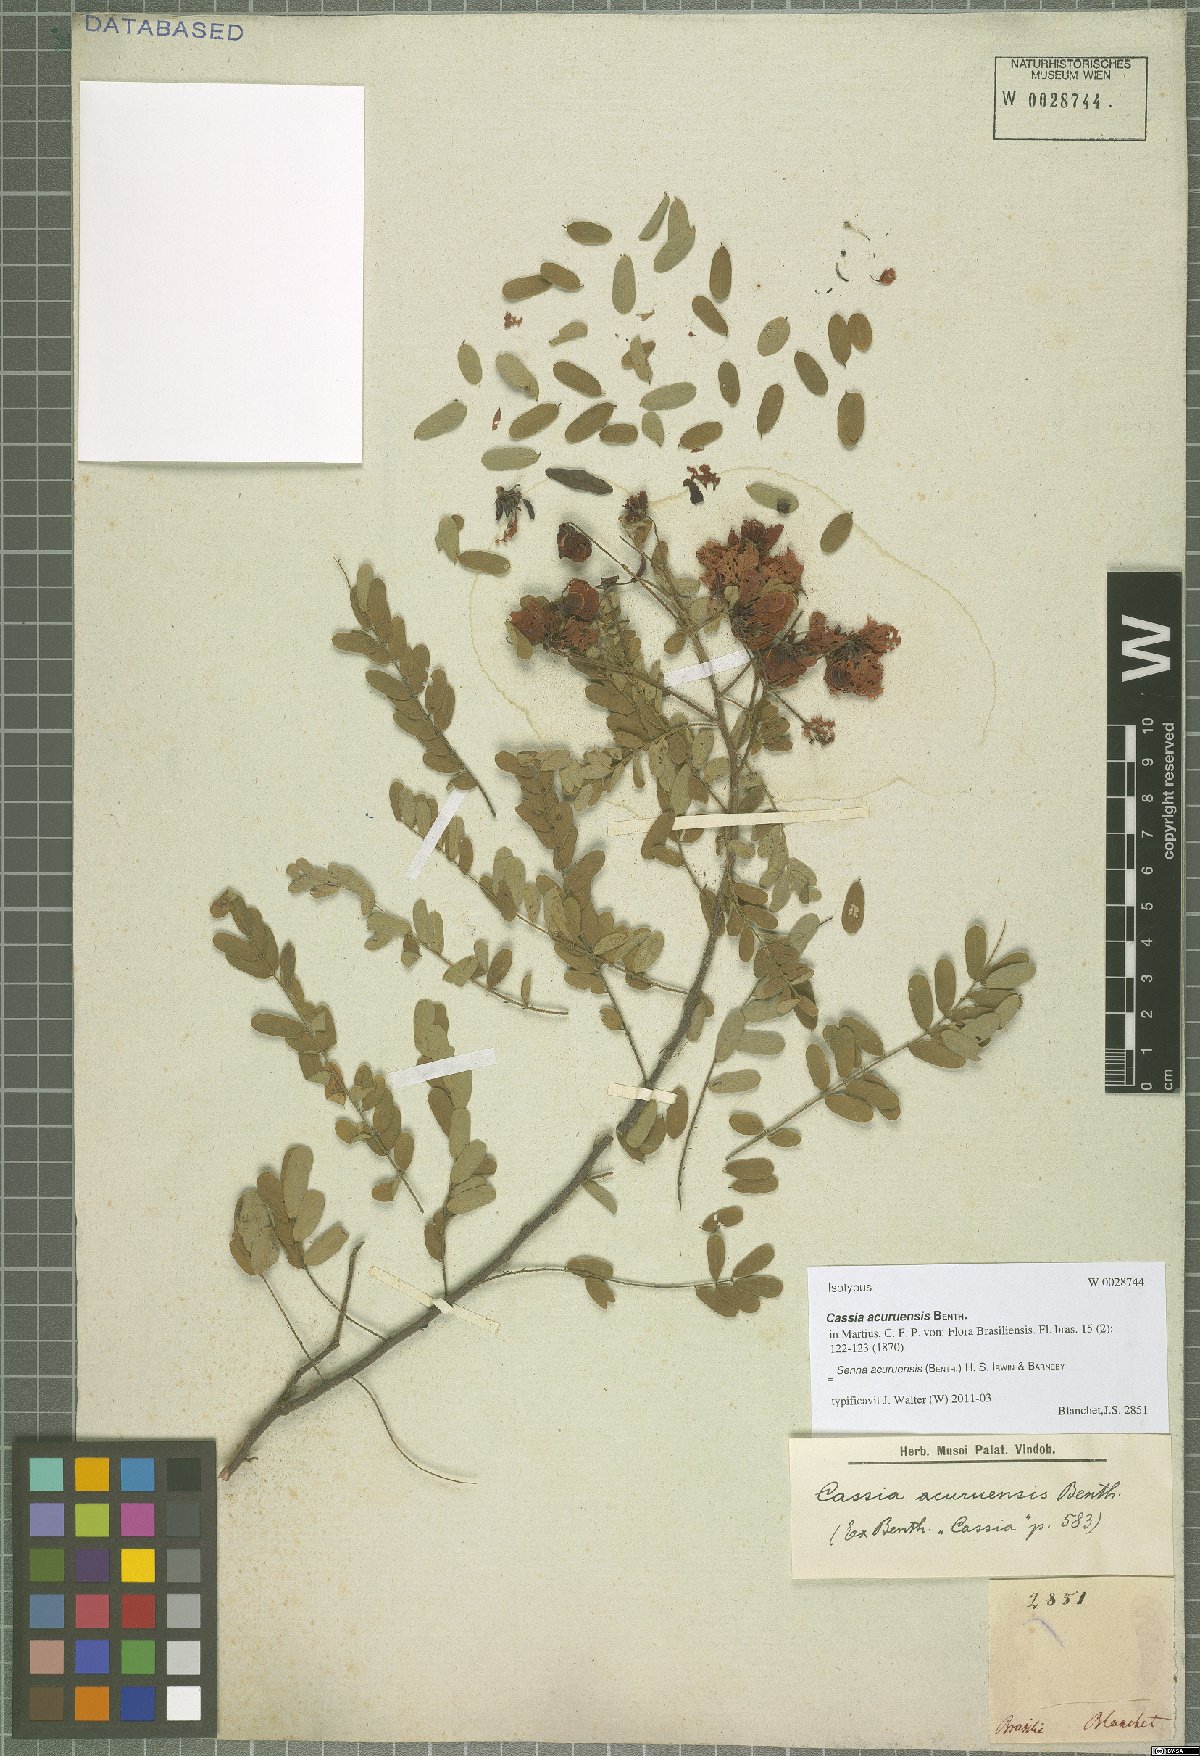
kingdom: Plantae
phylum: Tracheophyta
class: Magnoliopsida
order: Fabales
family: Fabaceae
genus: Senna
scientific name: Senna acuruensis
